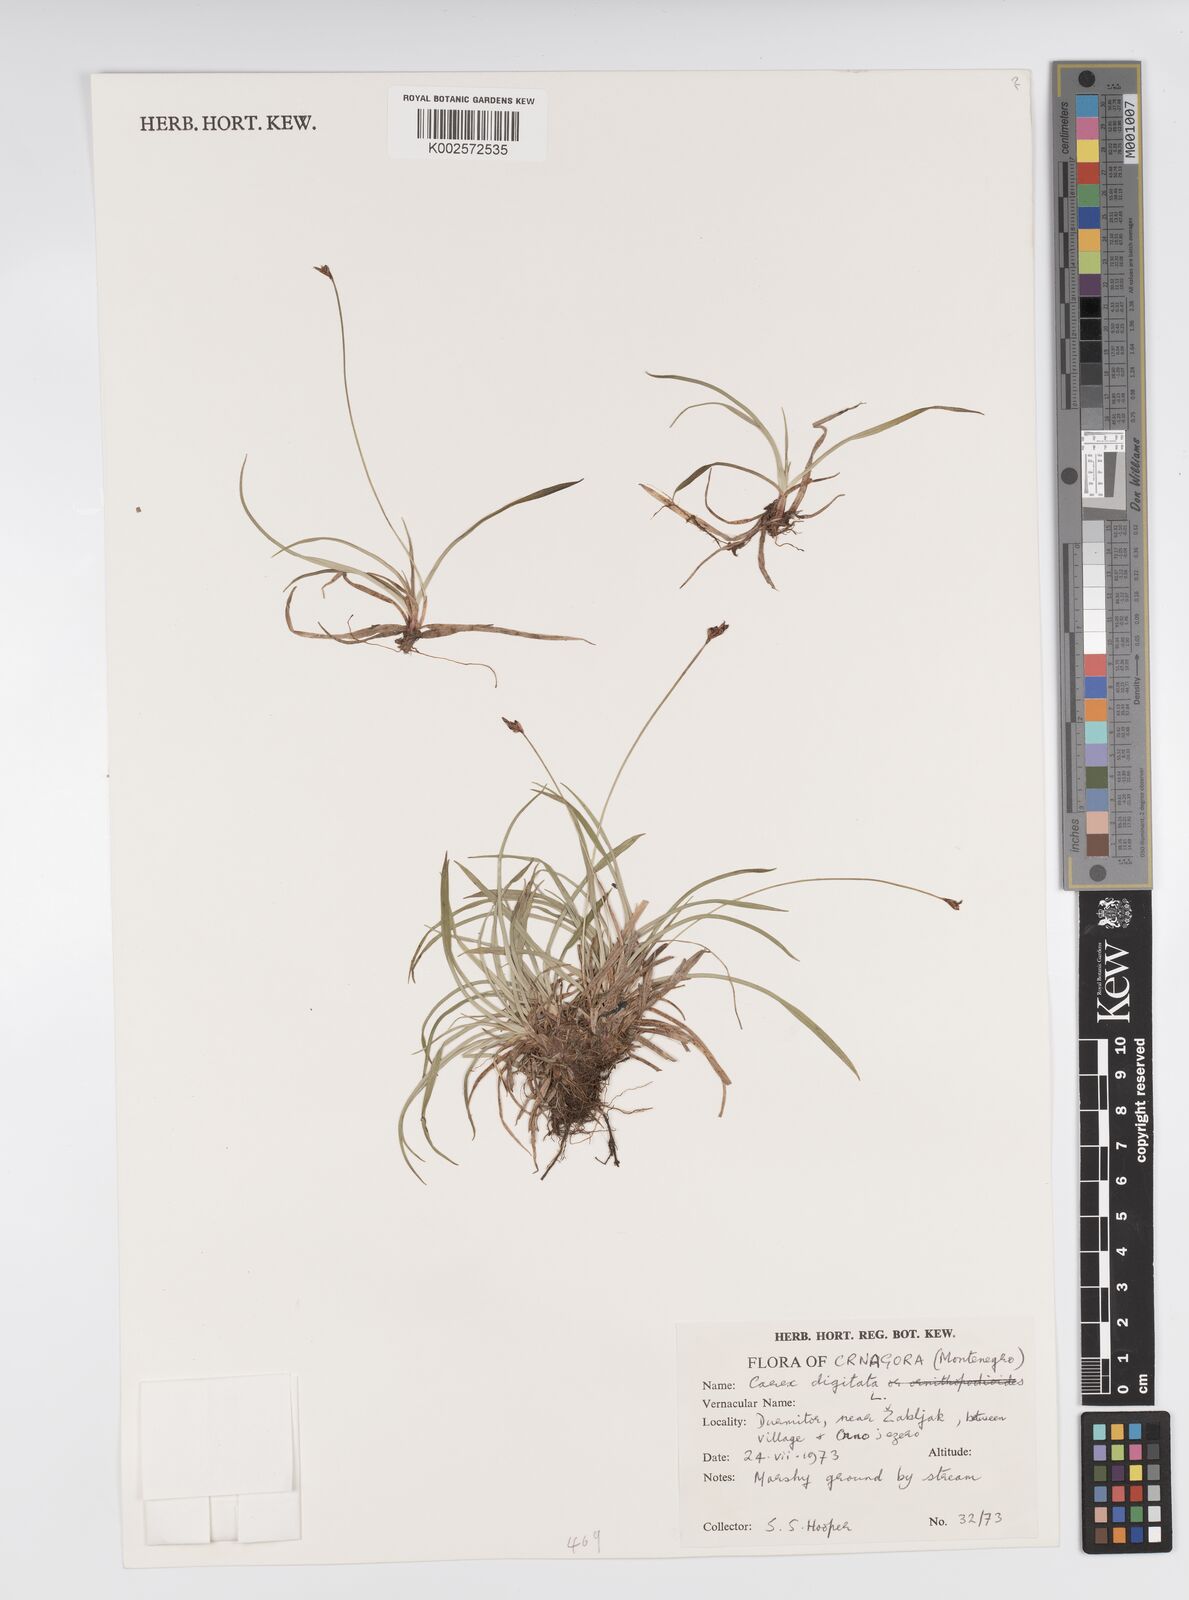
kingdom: Plantae
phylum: Tracheophyta
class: Liliopsida
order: Poales
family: Cyperaceae
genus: Carex
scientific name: Carex digitata
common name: Fingered sedge
